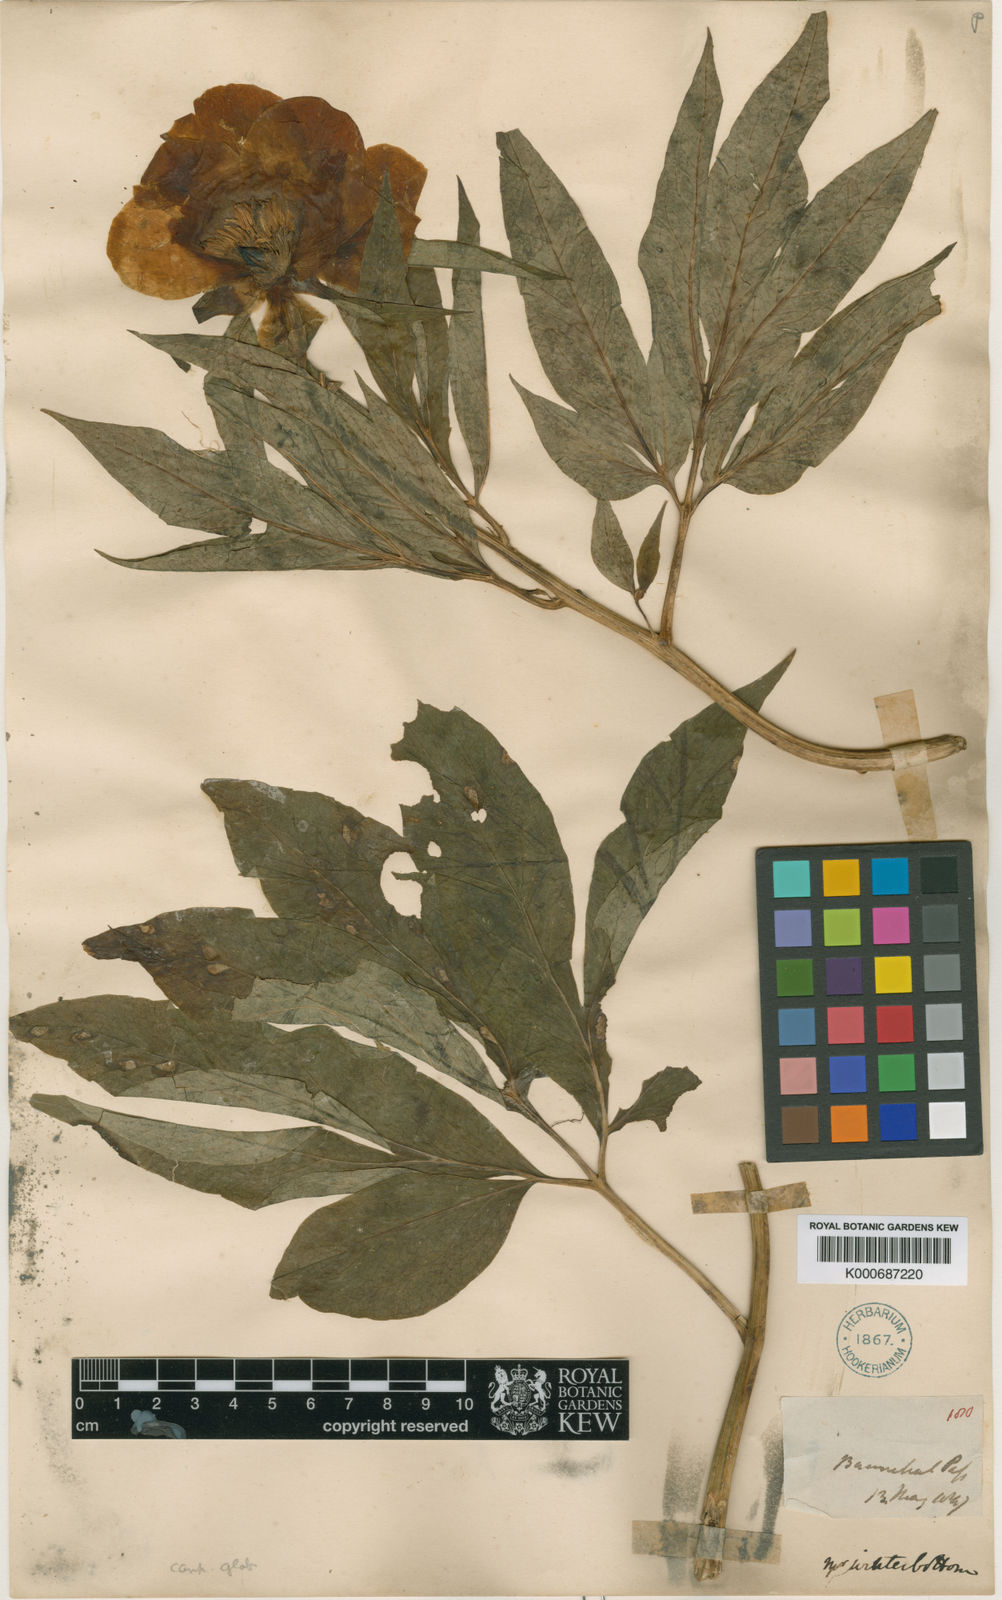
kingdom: Plantae
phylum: Tracheophyta
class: Magnoliopsida
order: Saxifragales
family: Paeoniaceae
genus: Paeonia
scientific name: Paeonia emodi
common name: Himalayan peony
